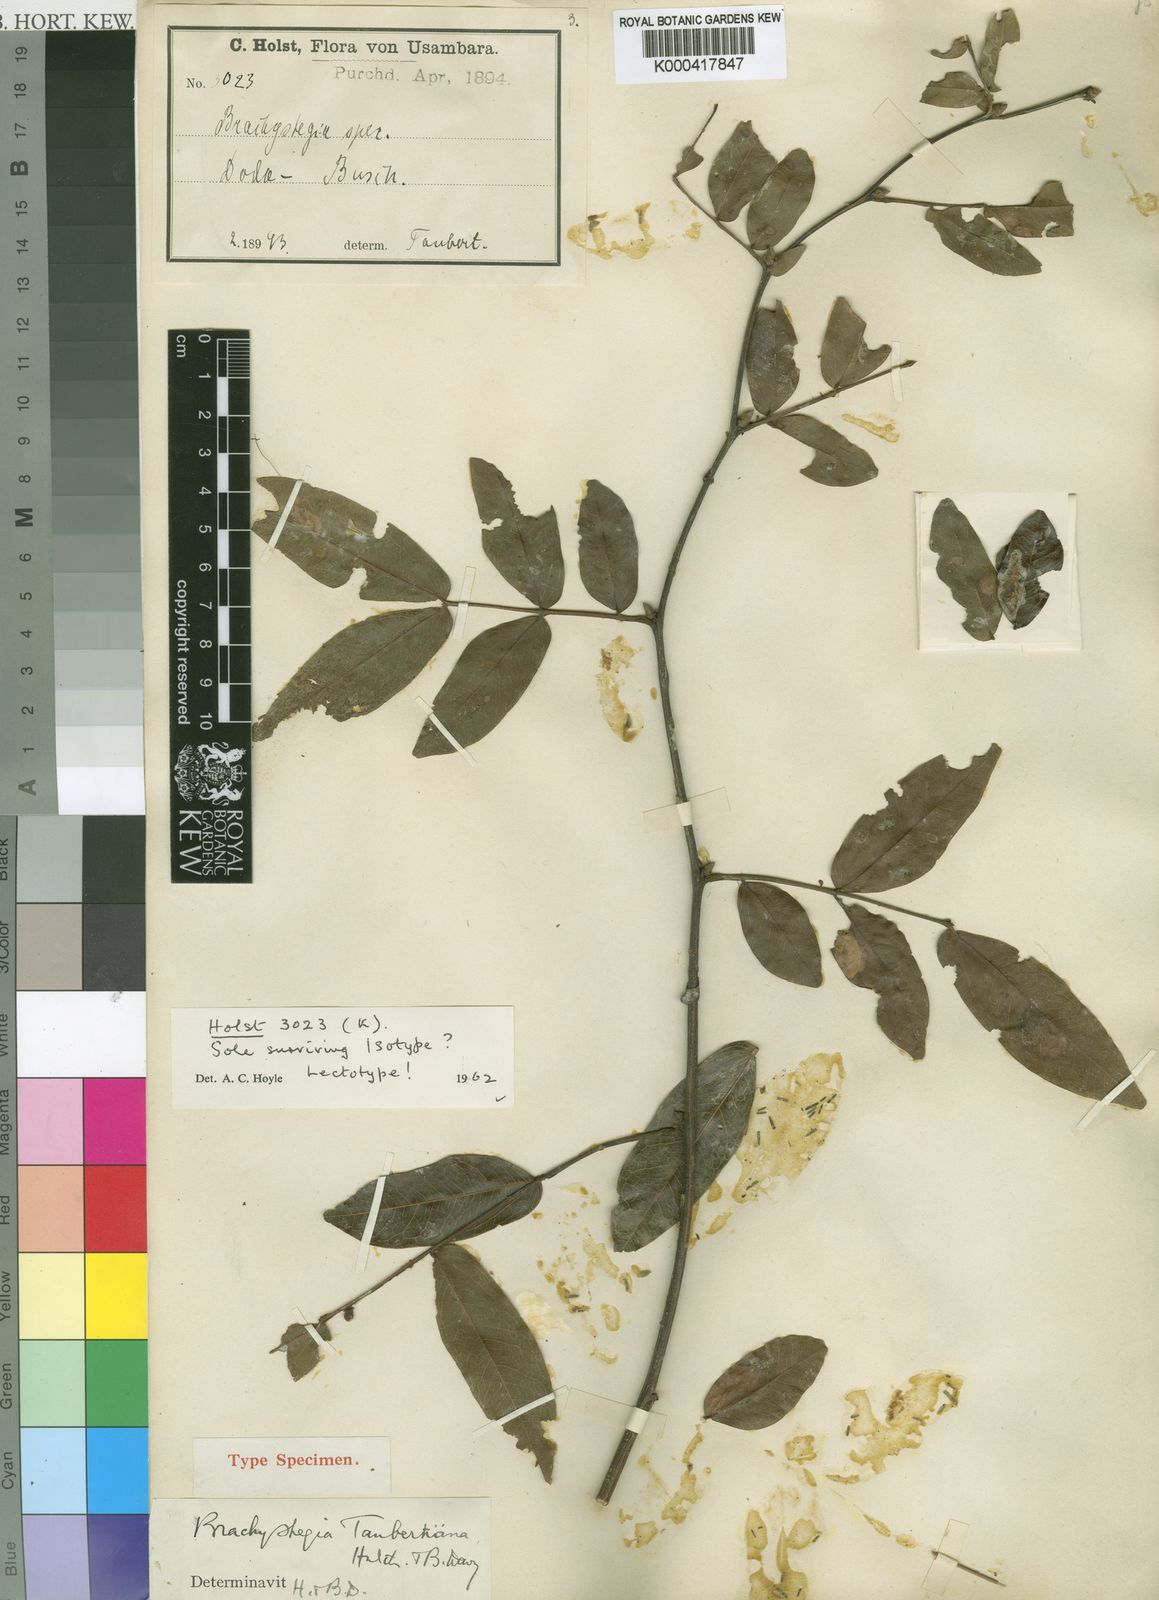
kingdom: Plantae
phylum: Tracheophyta
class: Magnoliopsida
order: Fabales
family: Fabaceae
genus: Brachystegia
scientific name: Brachystegia spiciformis
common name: Zebrawood
